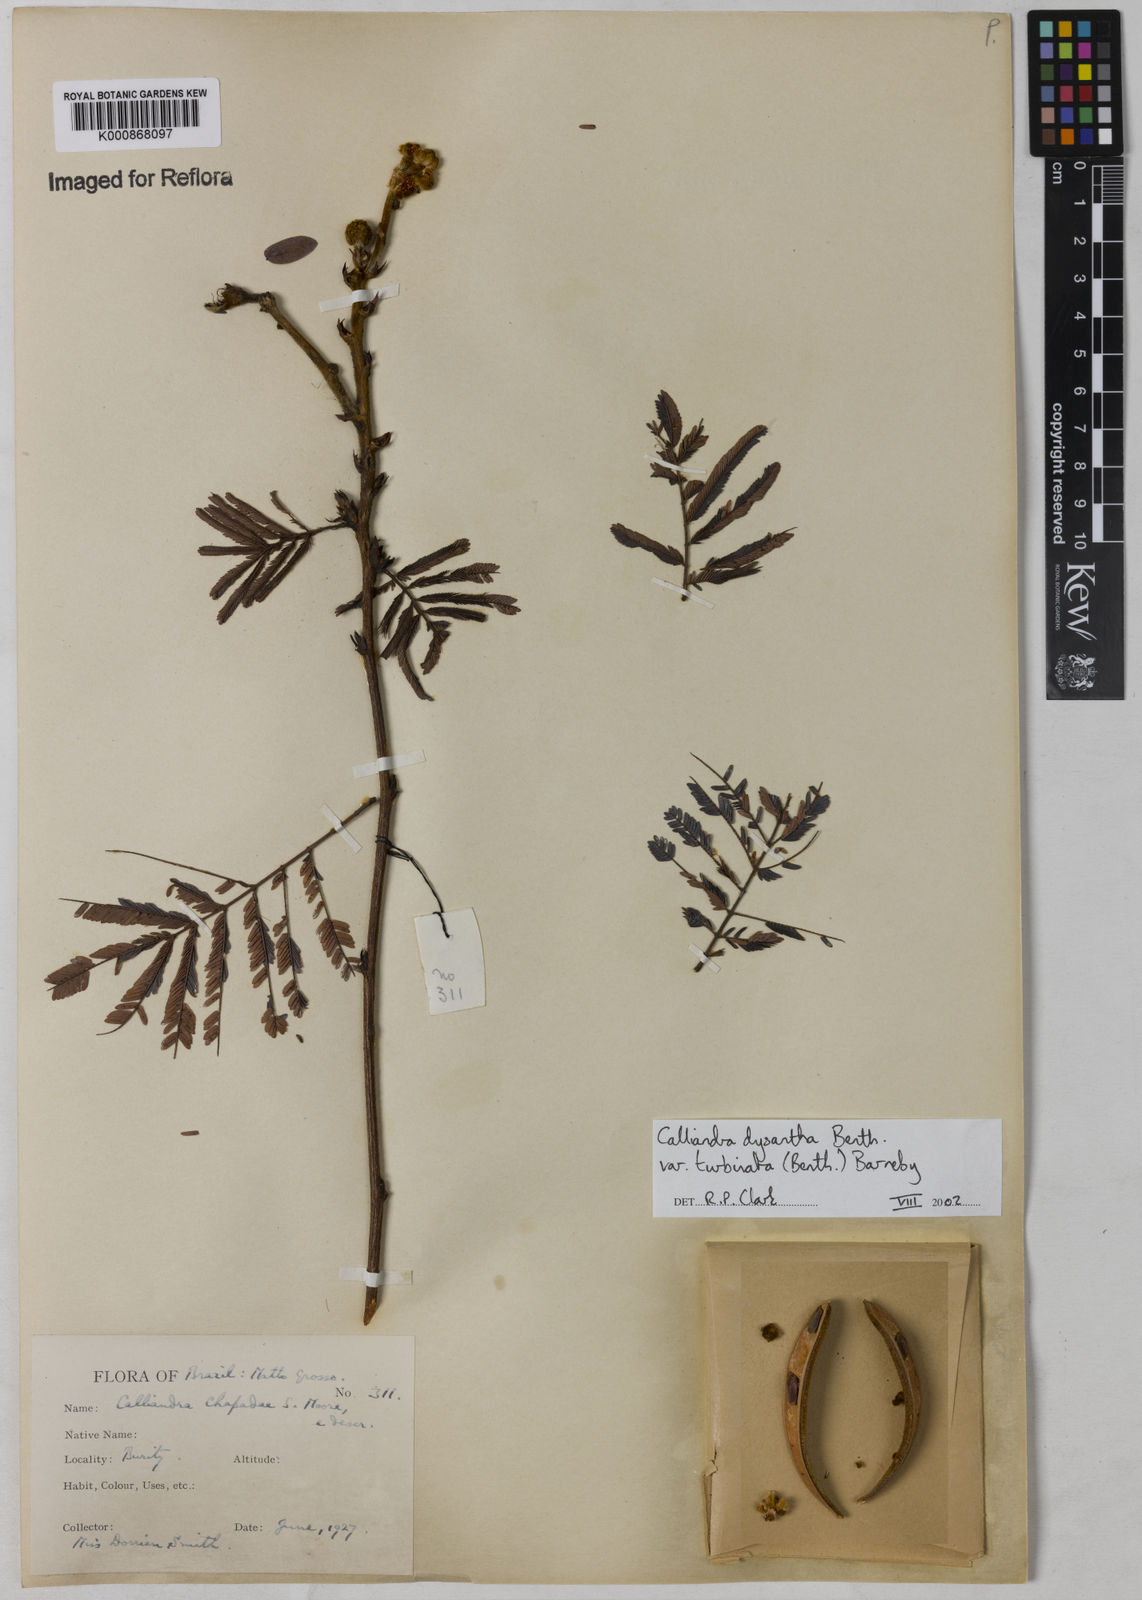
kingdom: Plantae
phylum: Tracheophyta
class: Magnoliopsida
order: Fabales
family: Fabaceae
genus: Calliandra
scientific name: Calliandra dysantha
